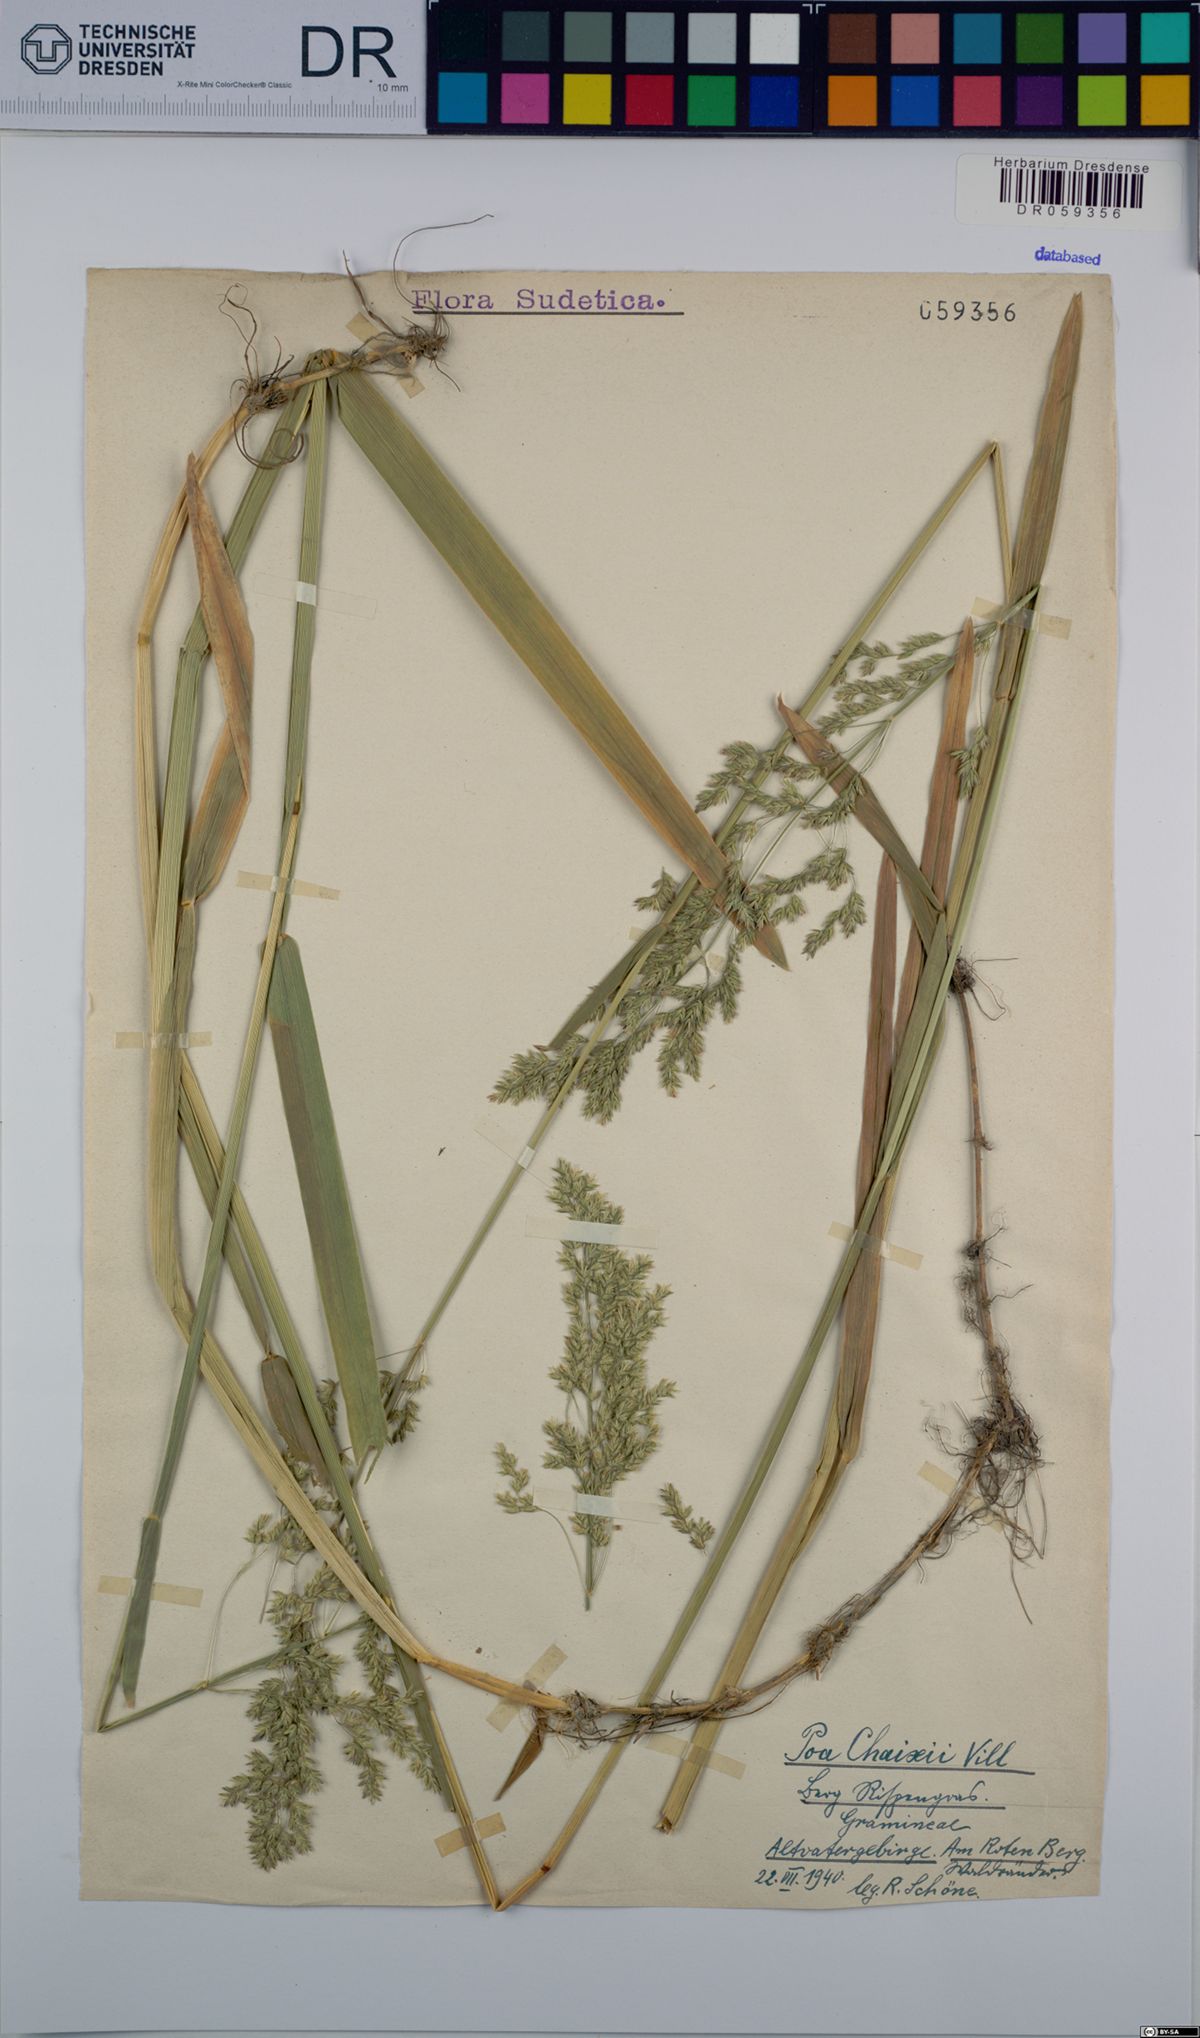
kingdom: Plantae
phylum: Tracheophyta
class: Liliopsida
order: Poales
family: Poaceae
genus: Poa
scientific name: Poa chaixii
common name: Broad-leaved meadow-grass
